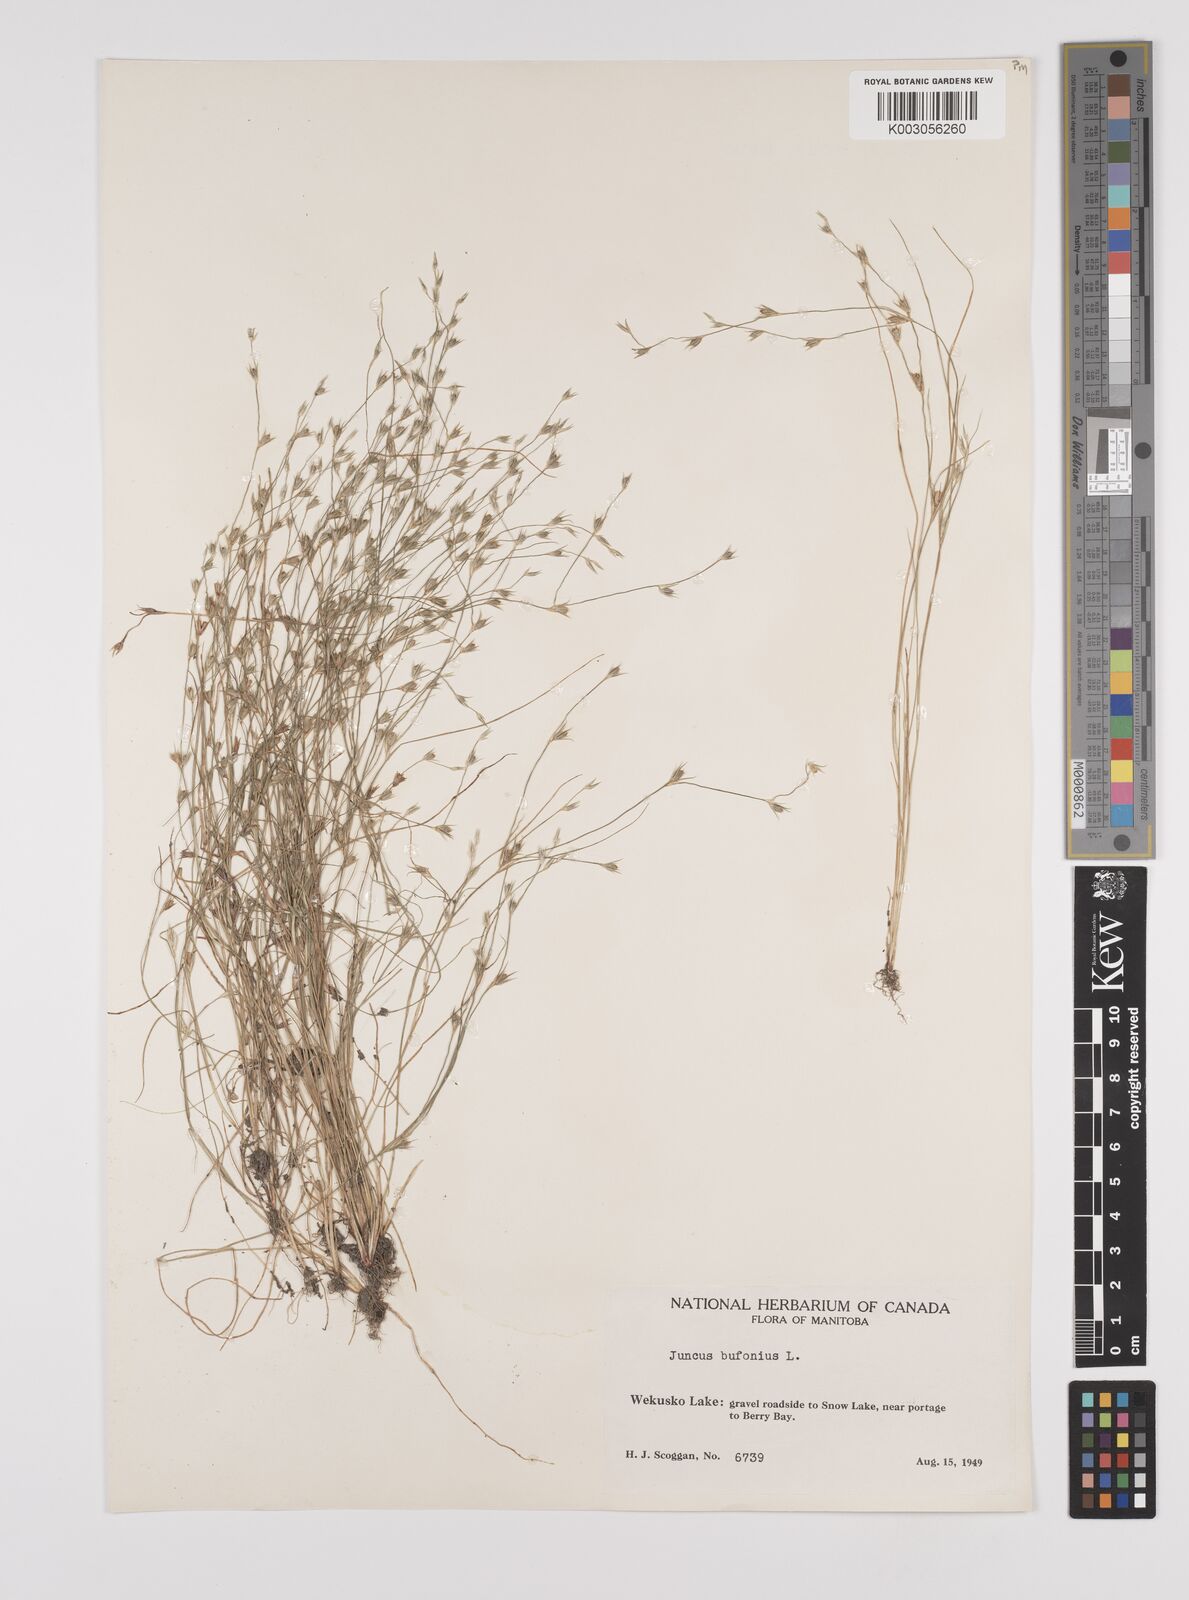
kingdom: Plantae
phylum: Tracheophyta
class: Liliopsida
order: Poales
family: Juncaceae
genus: Juncus
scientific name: Juncus ranarius
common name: Frog rush
